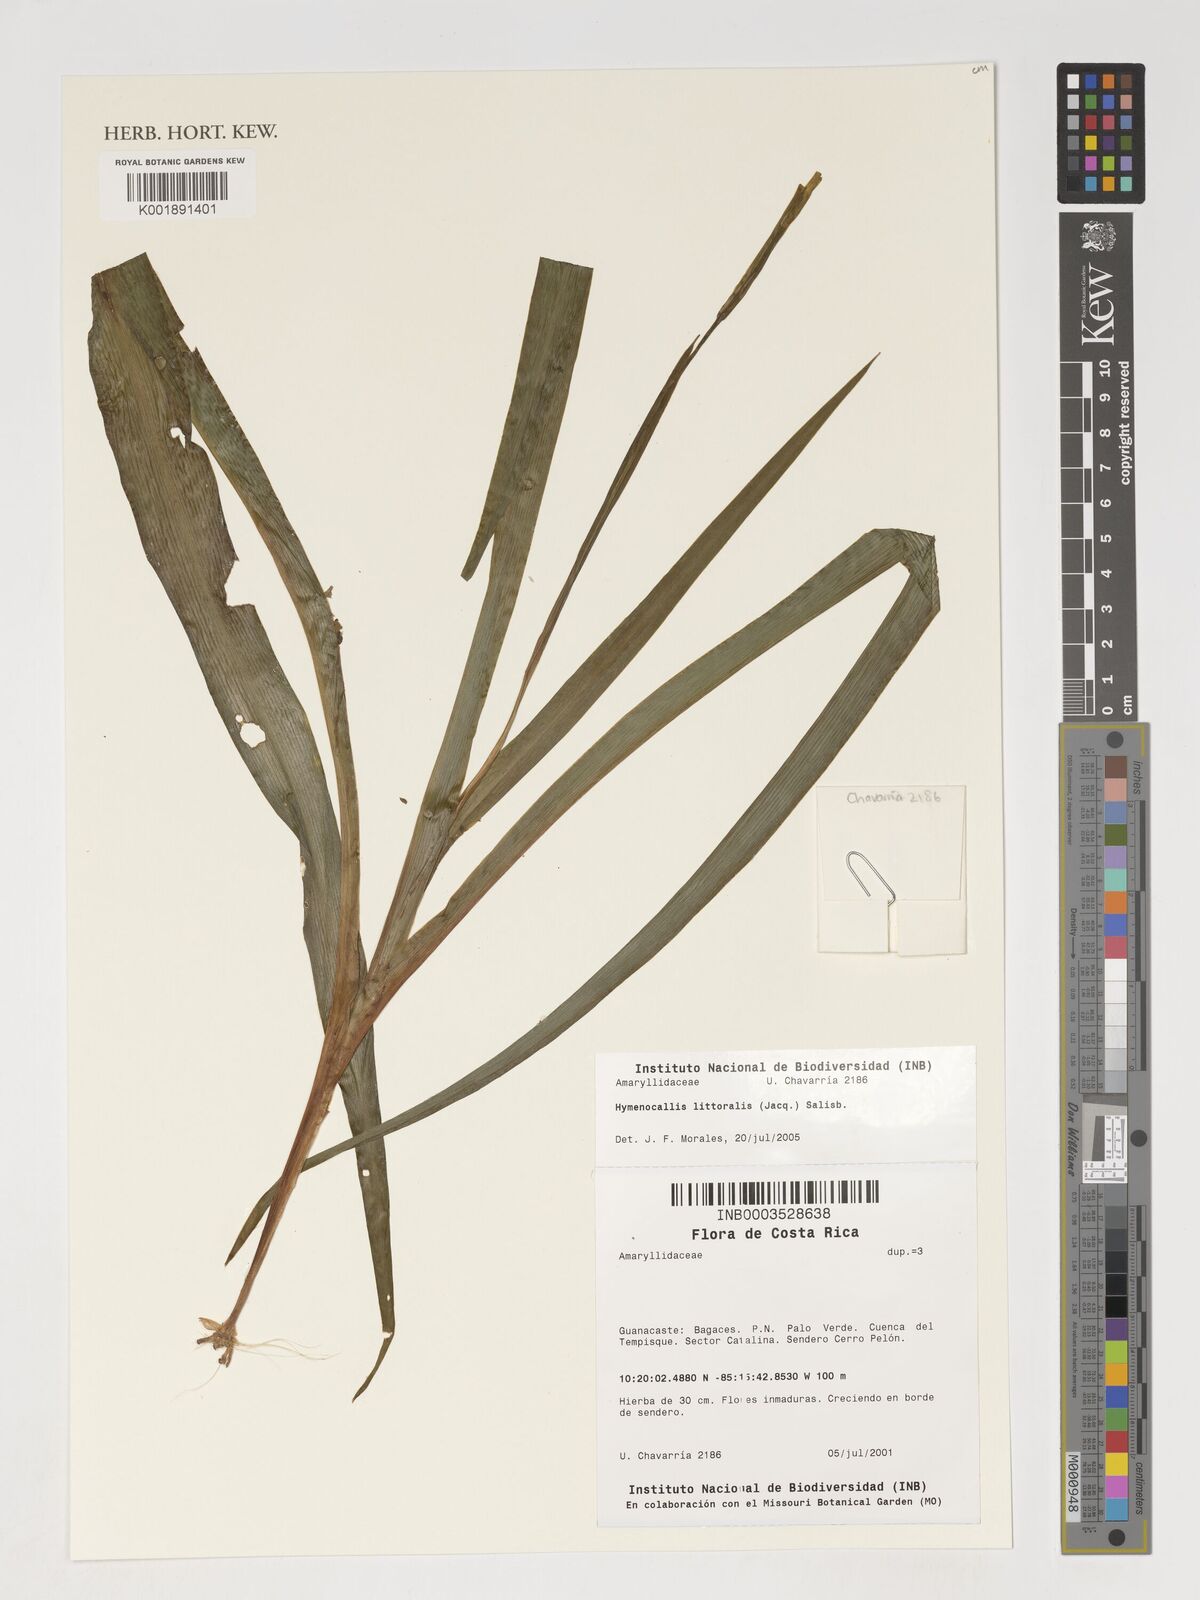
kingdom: Plantae
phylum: Tracheophyta
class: Liliopsida
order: Asparagales
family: Amaryllidaceae
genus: Hymenocallis
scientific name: Hymenocallis littoralis
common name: Beach spiderlily
